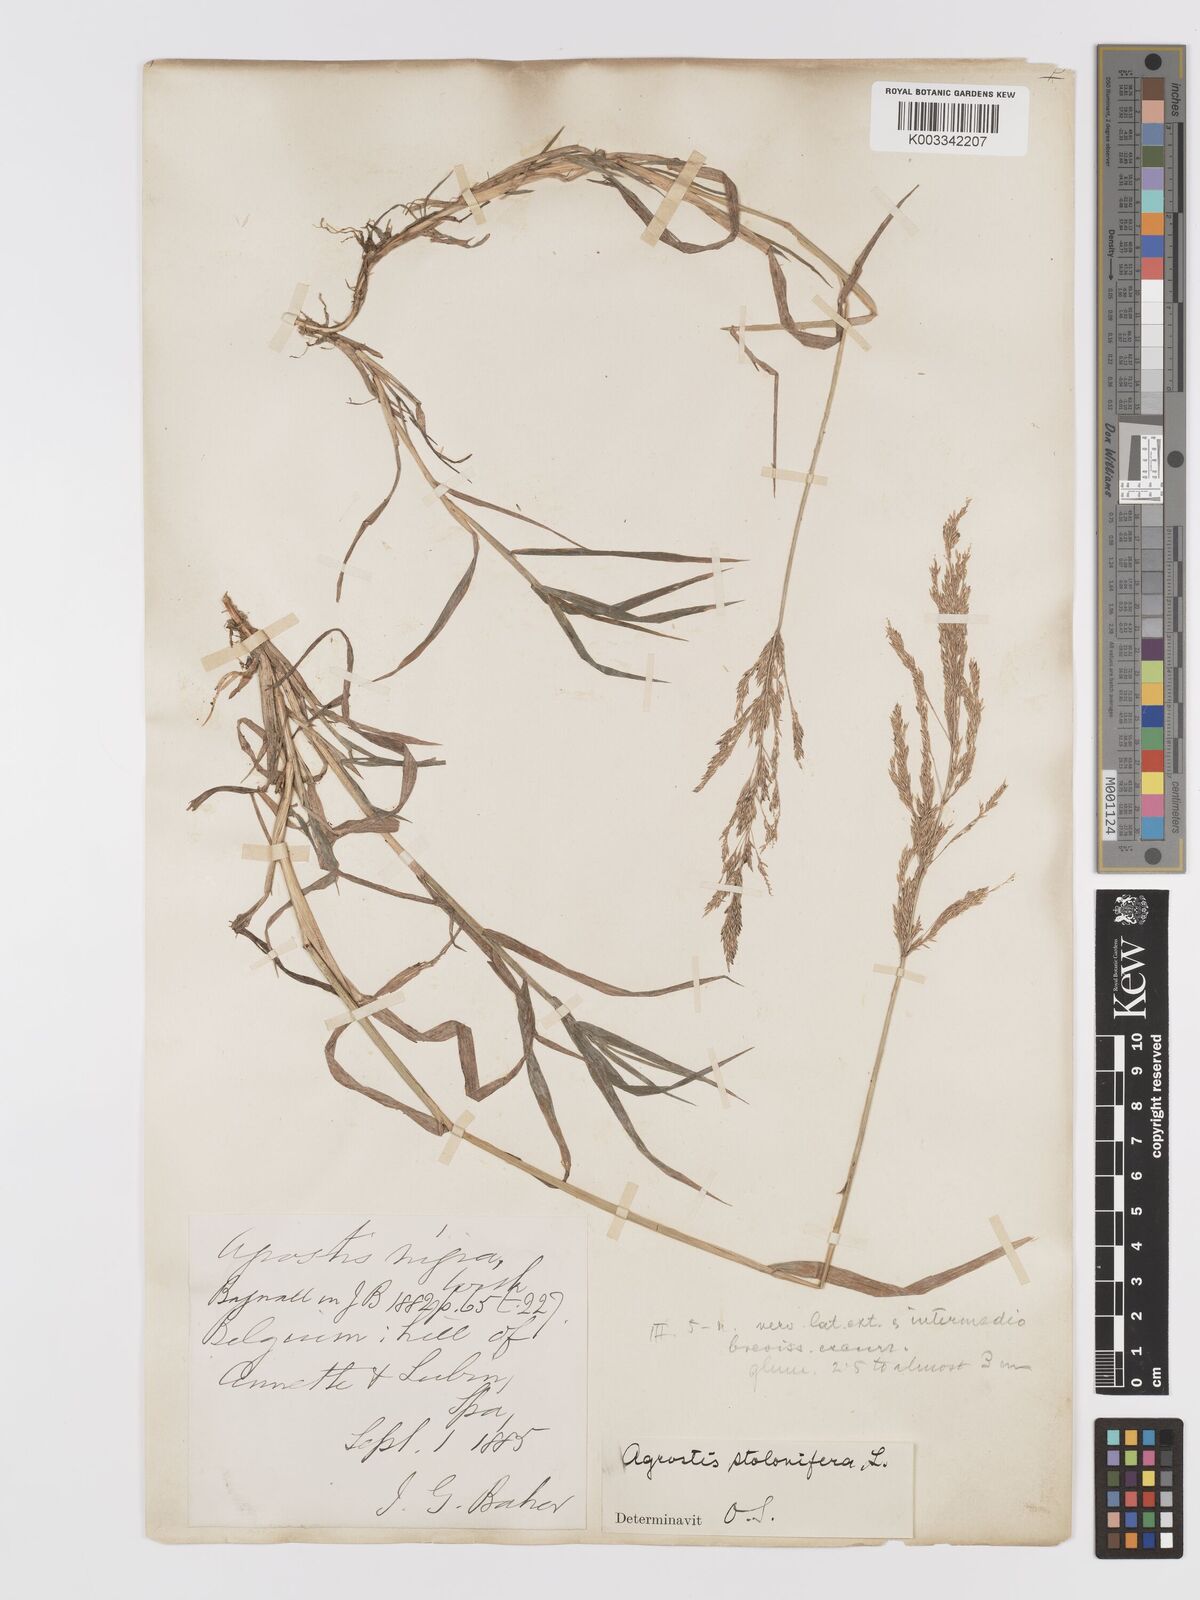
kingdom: Plantae
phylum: Tracheophyta
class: Liliopsida
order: Poales
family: Poaceae
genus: Agrostis
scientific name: Agrostis stolonifera
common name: Creeping bentgrass
